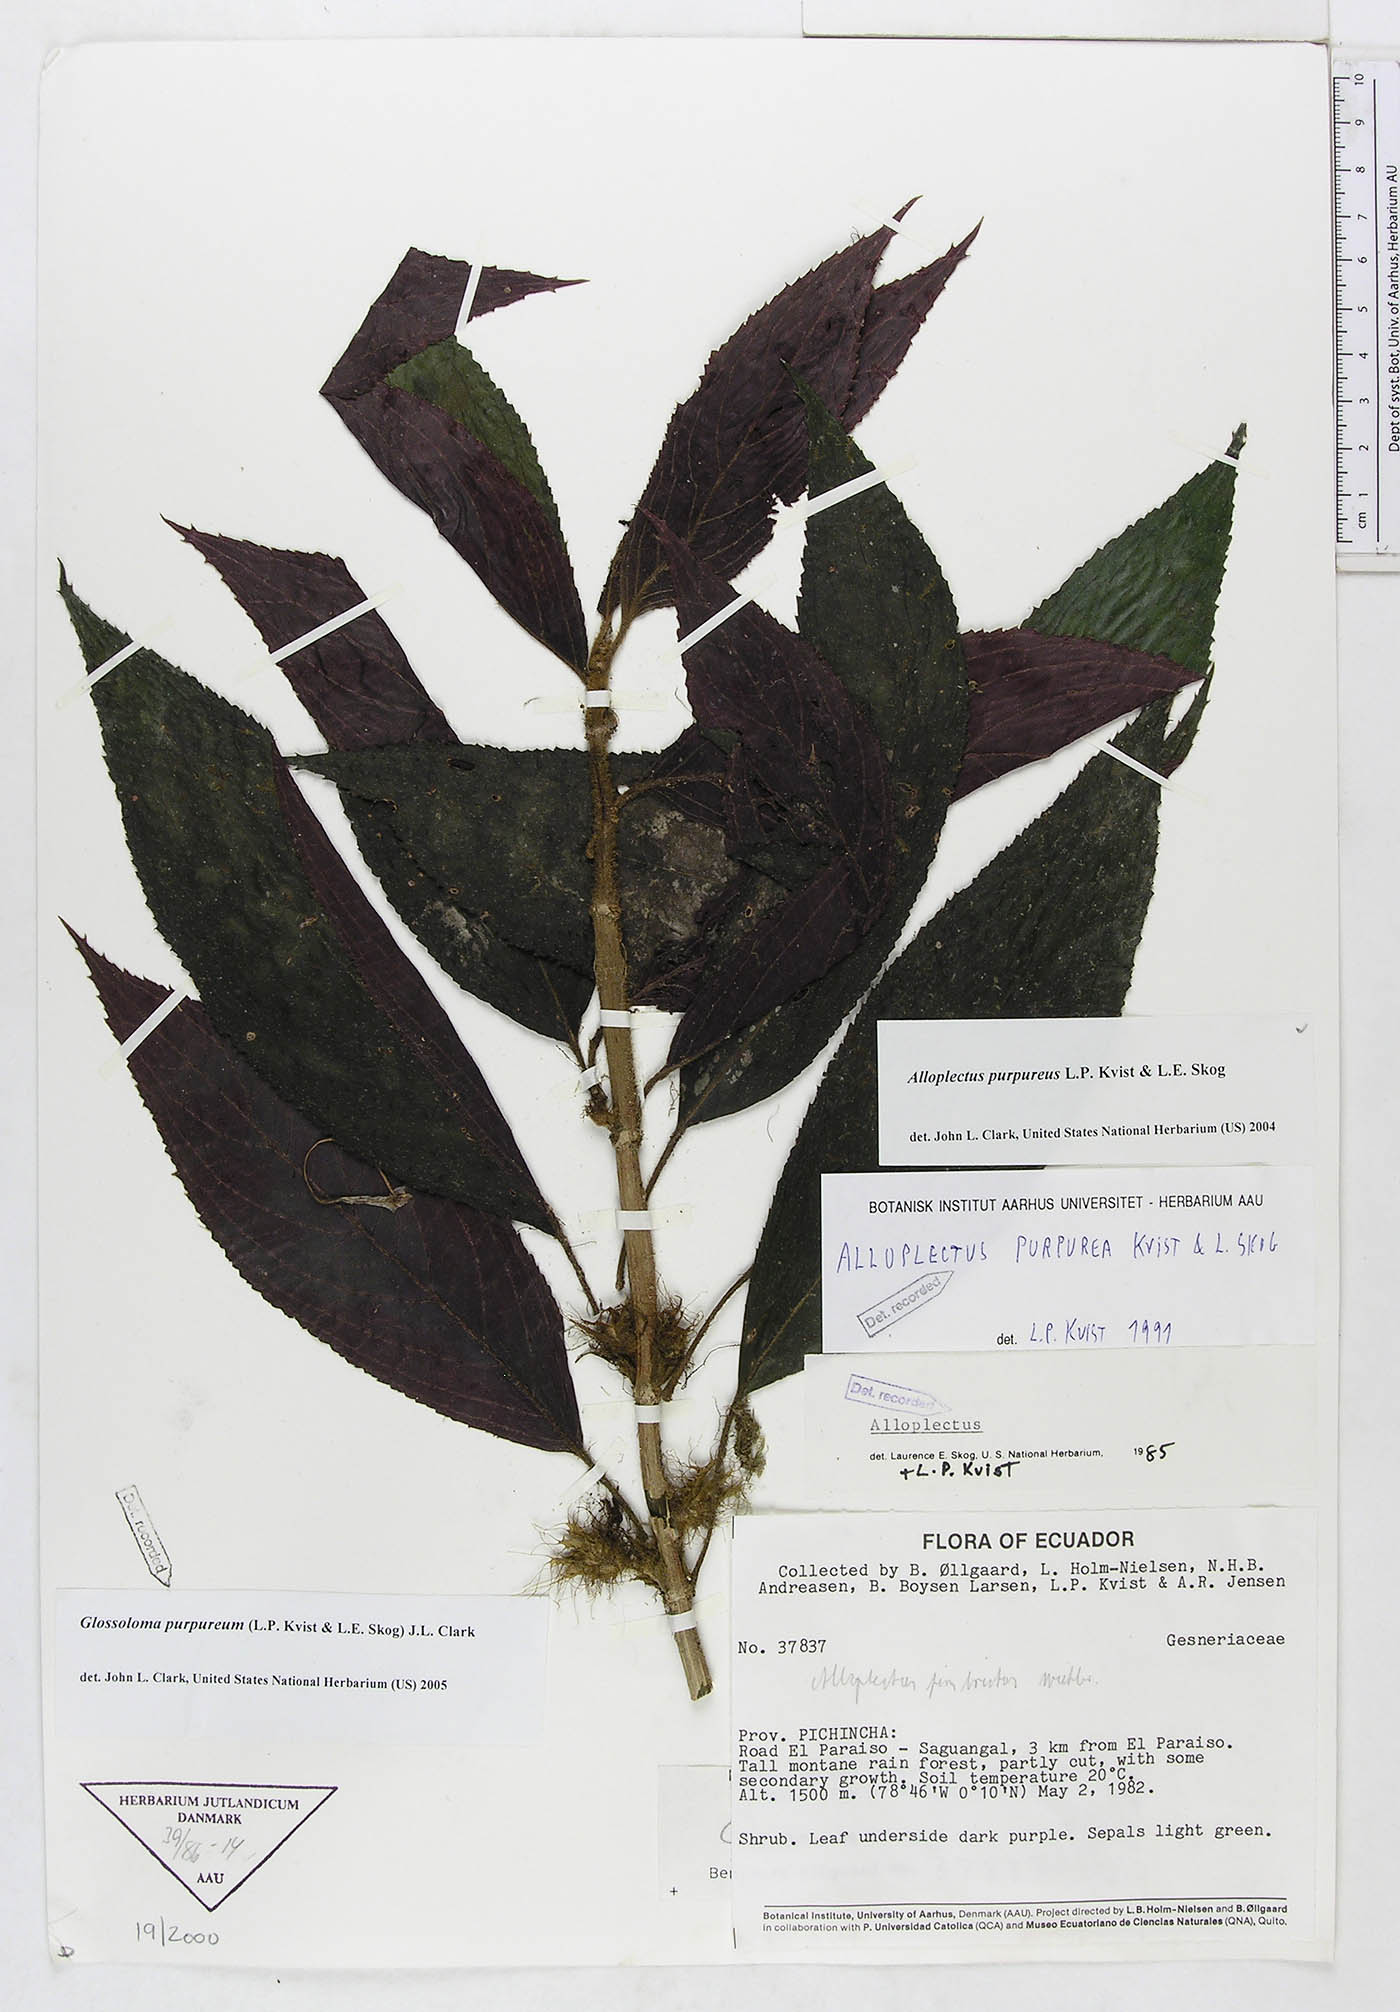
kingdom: Plantae
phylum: Tracheophyta
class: Magnoliopsida
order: Lamiales
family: Gesneriaceae
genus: Glossoloma
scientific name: Glossoloma purpureum
